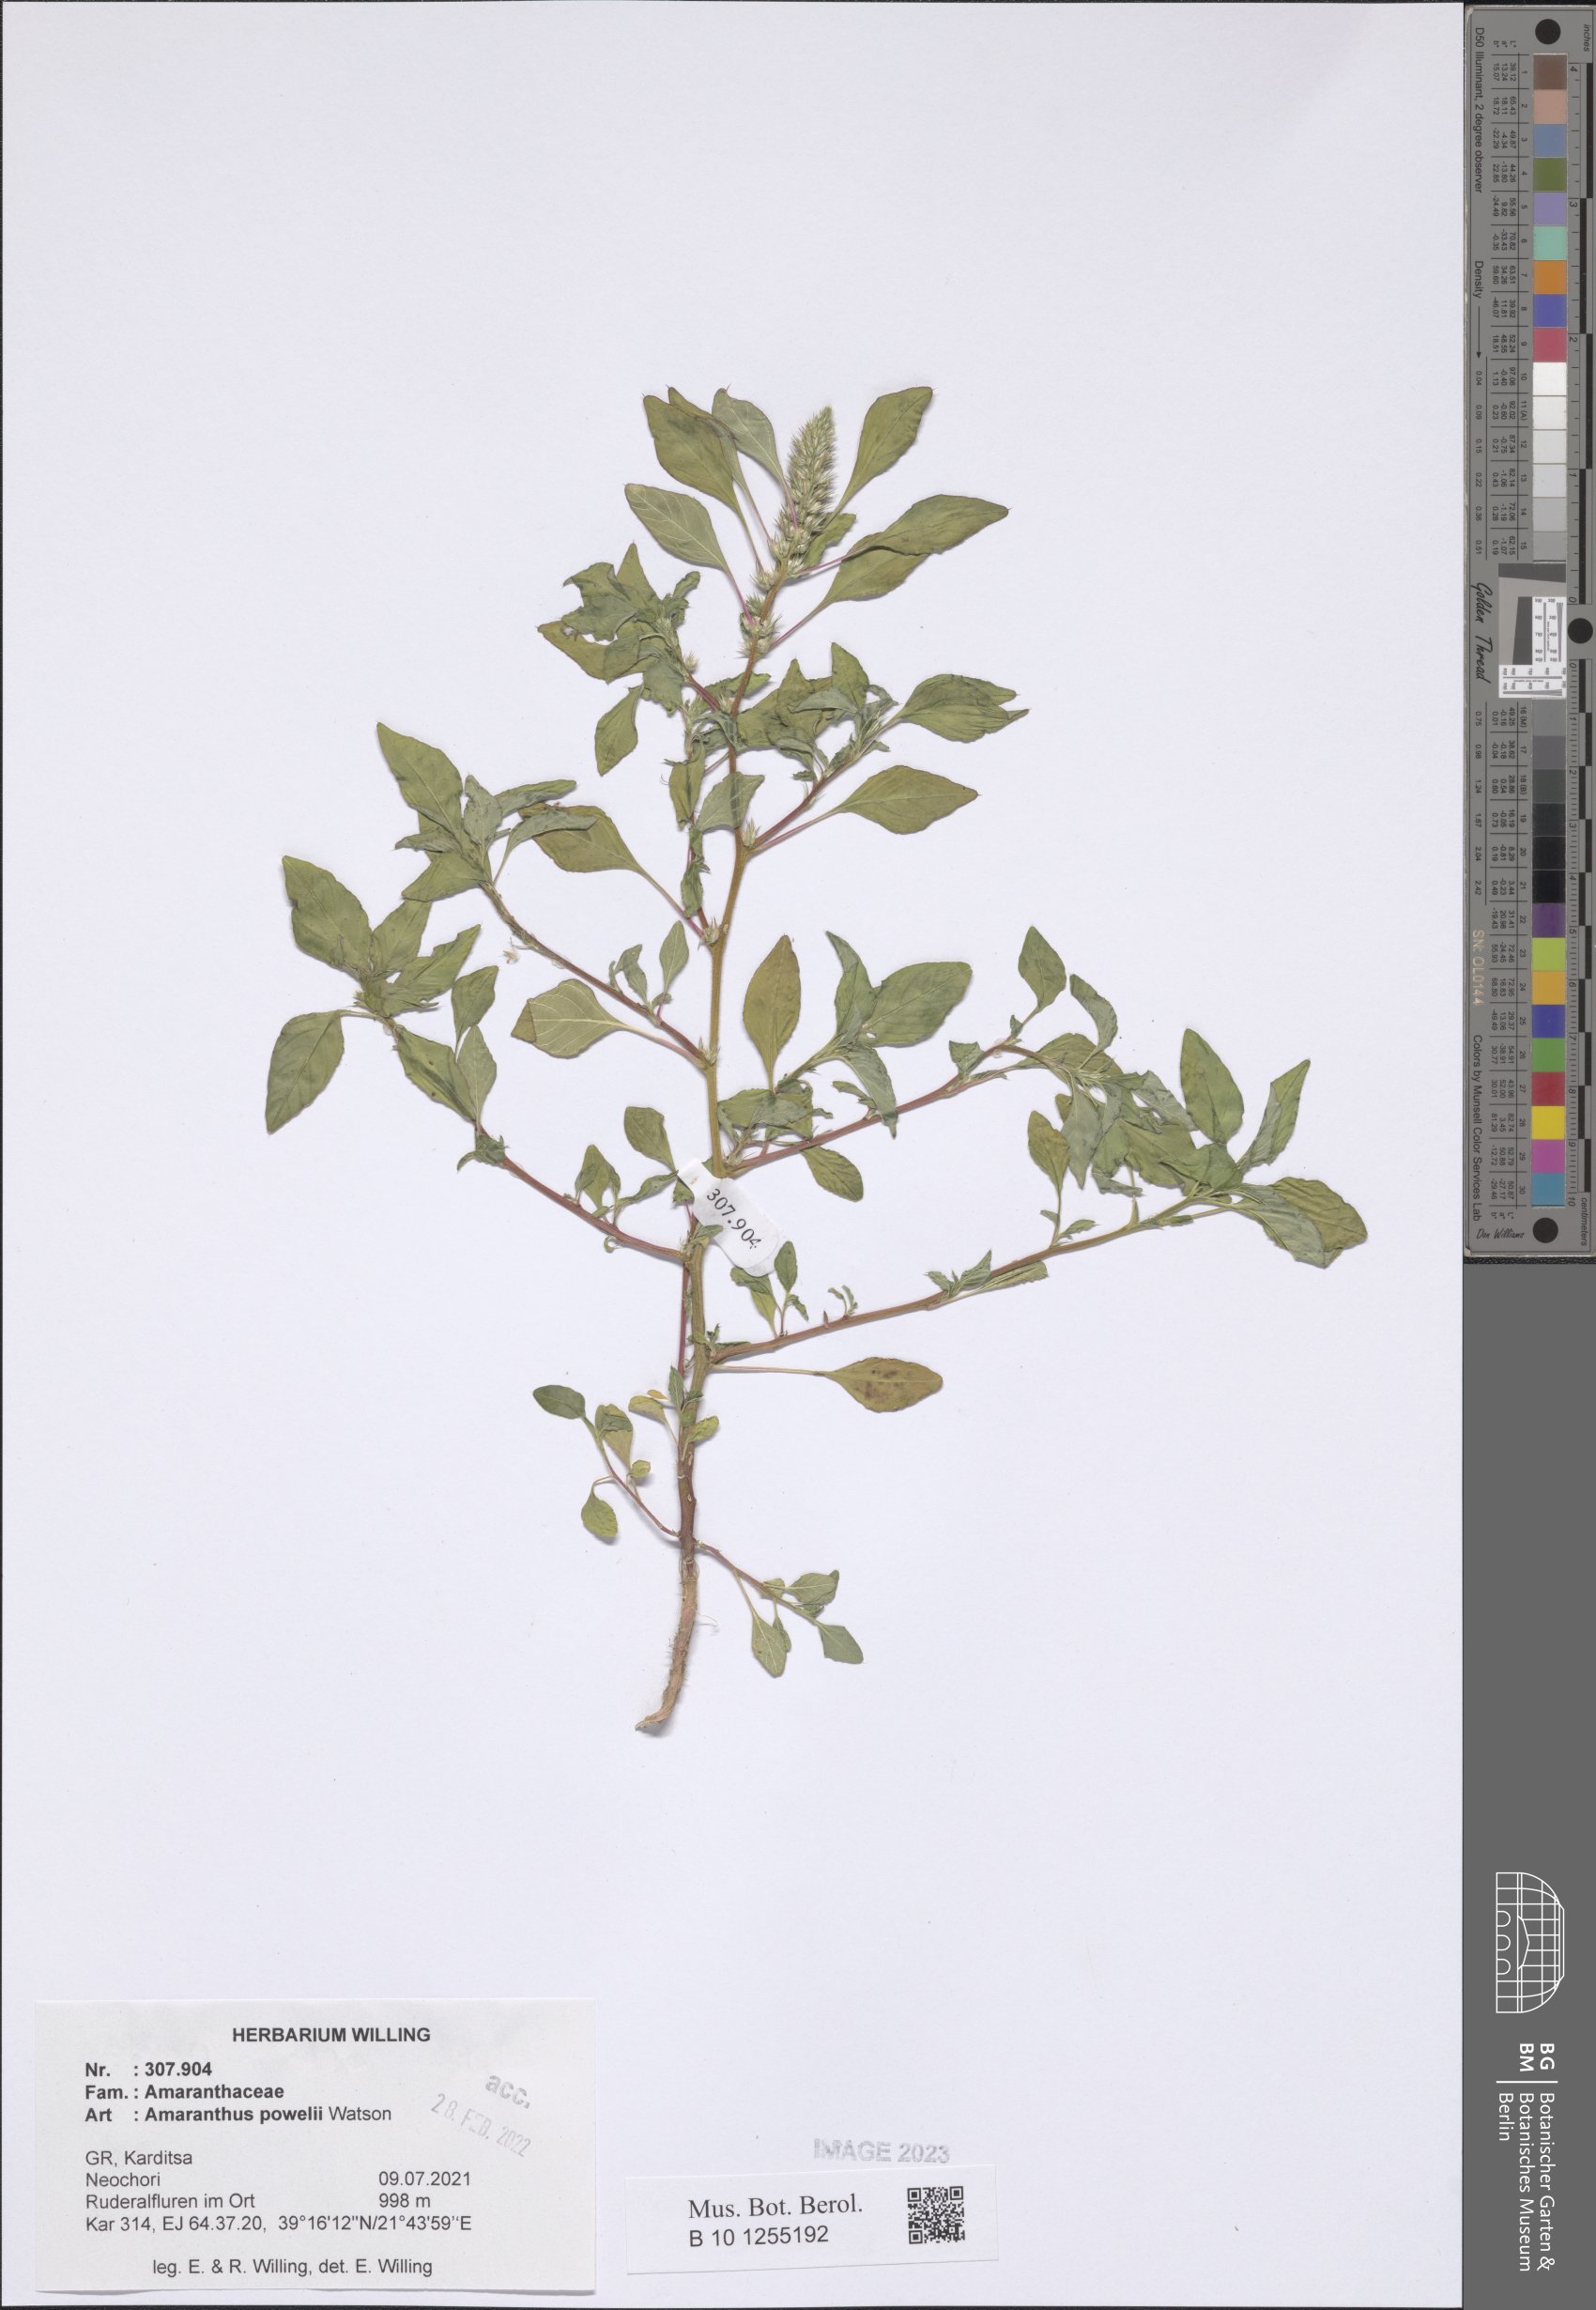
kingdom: Plantae
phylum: Tracheophyta
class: Magnoliopsida
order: Caryophyllales
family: Amaranthaceae
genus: Amaranthus
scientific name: Amaranthus powellii
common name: Powell's amaranth
